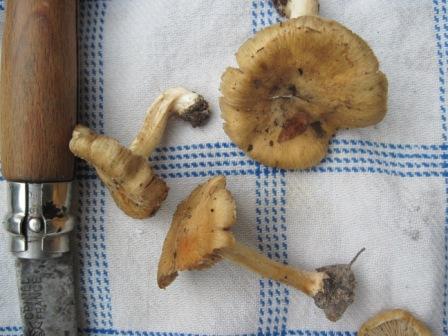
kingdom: Fungi
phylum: Basidiomycota
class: Agaricomycetes
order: Agaricales
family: Inocybaceae
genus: Inosperma
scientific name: Inosperma
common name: strågul trævlhat
